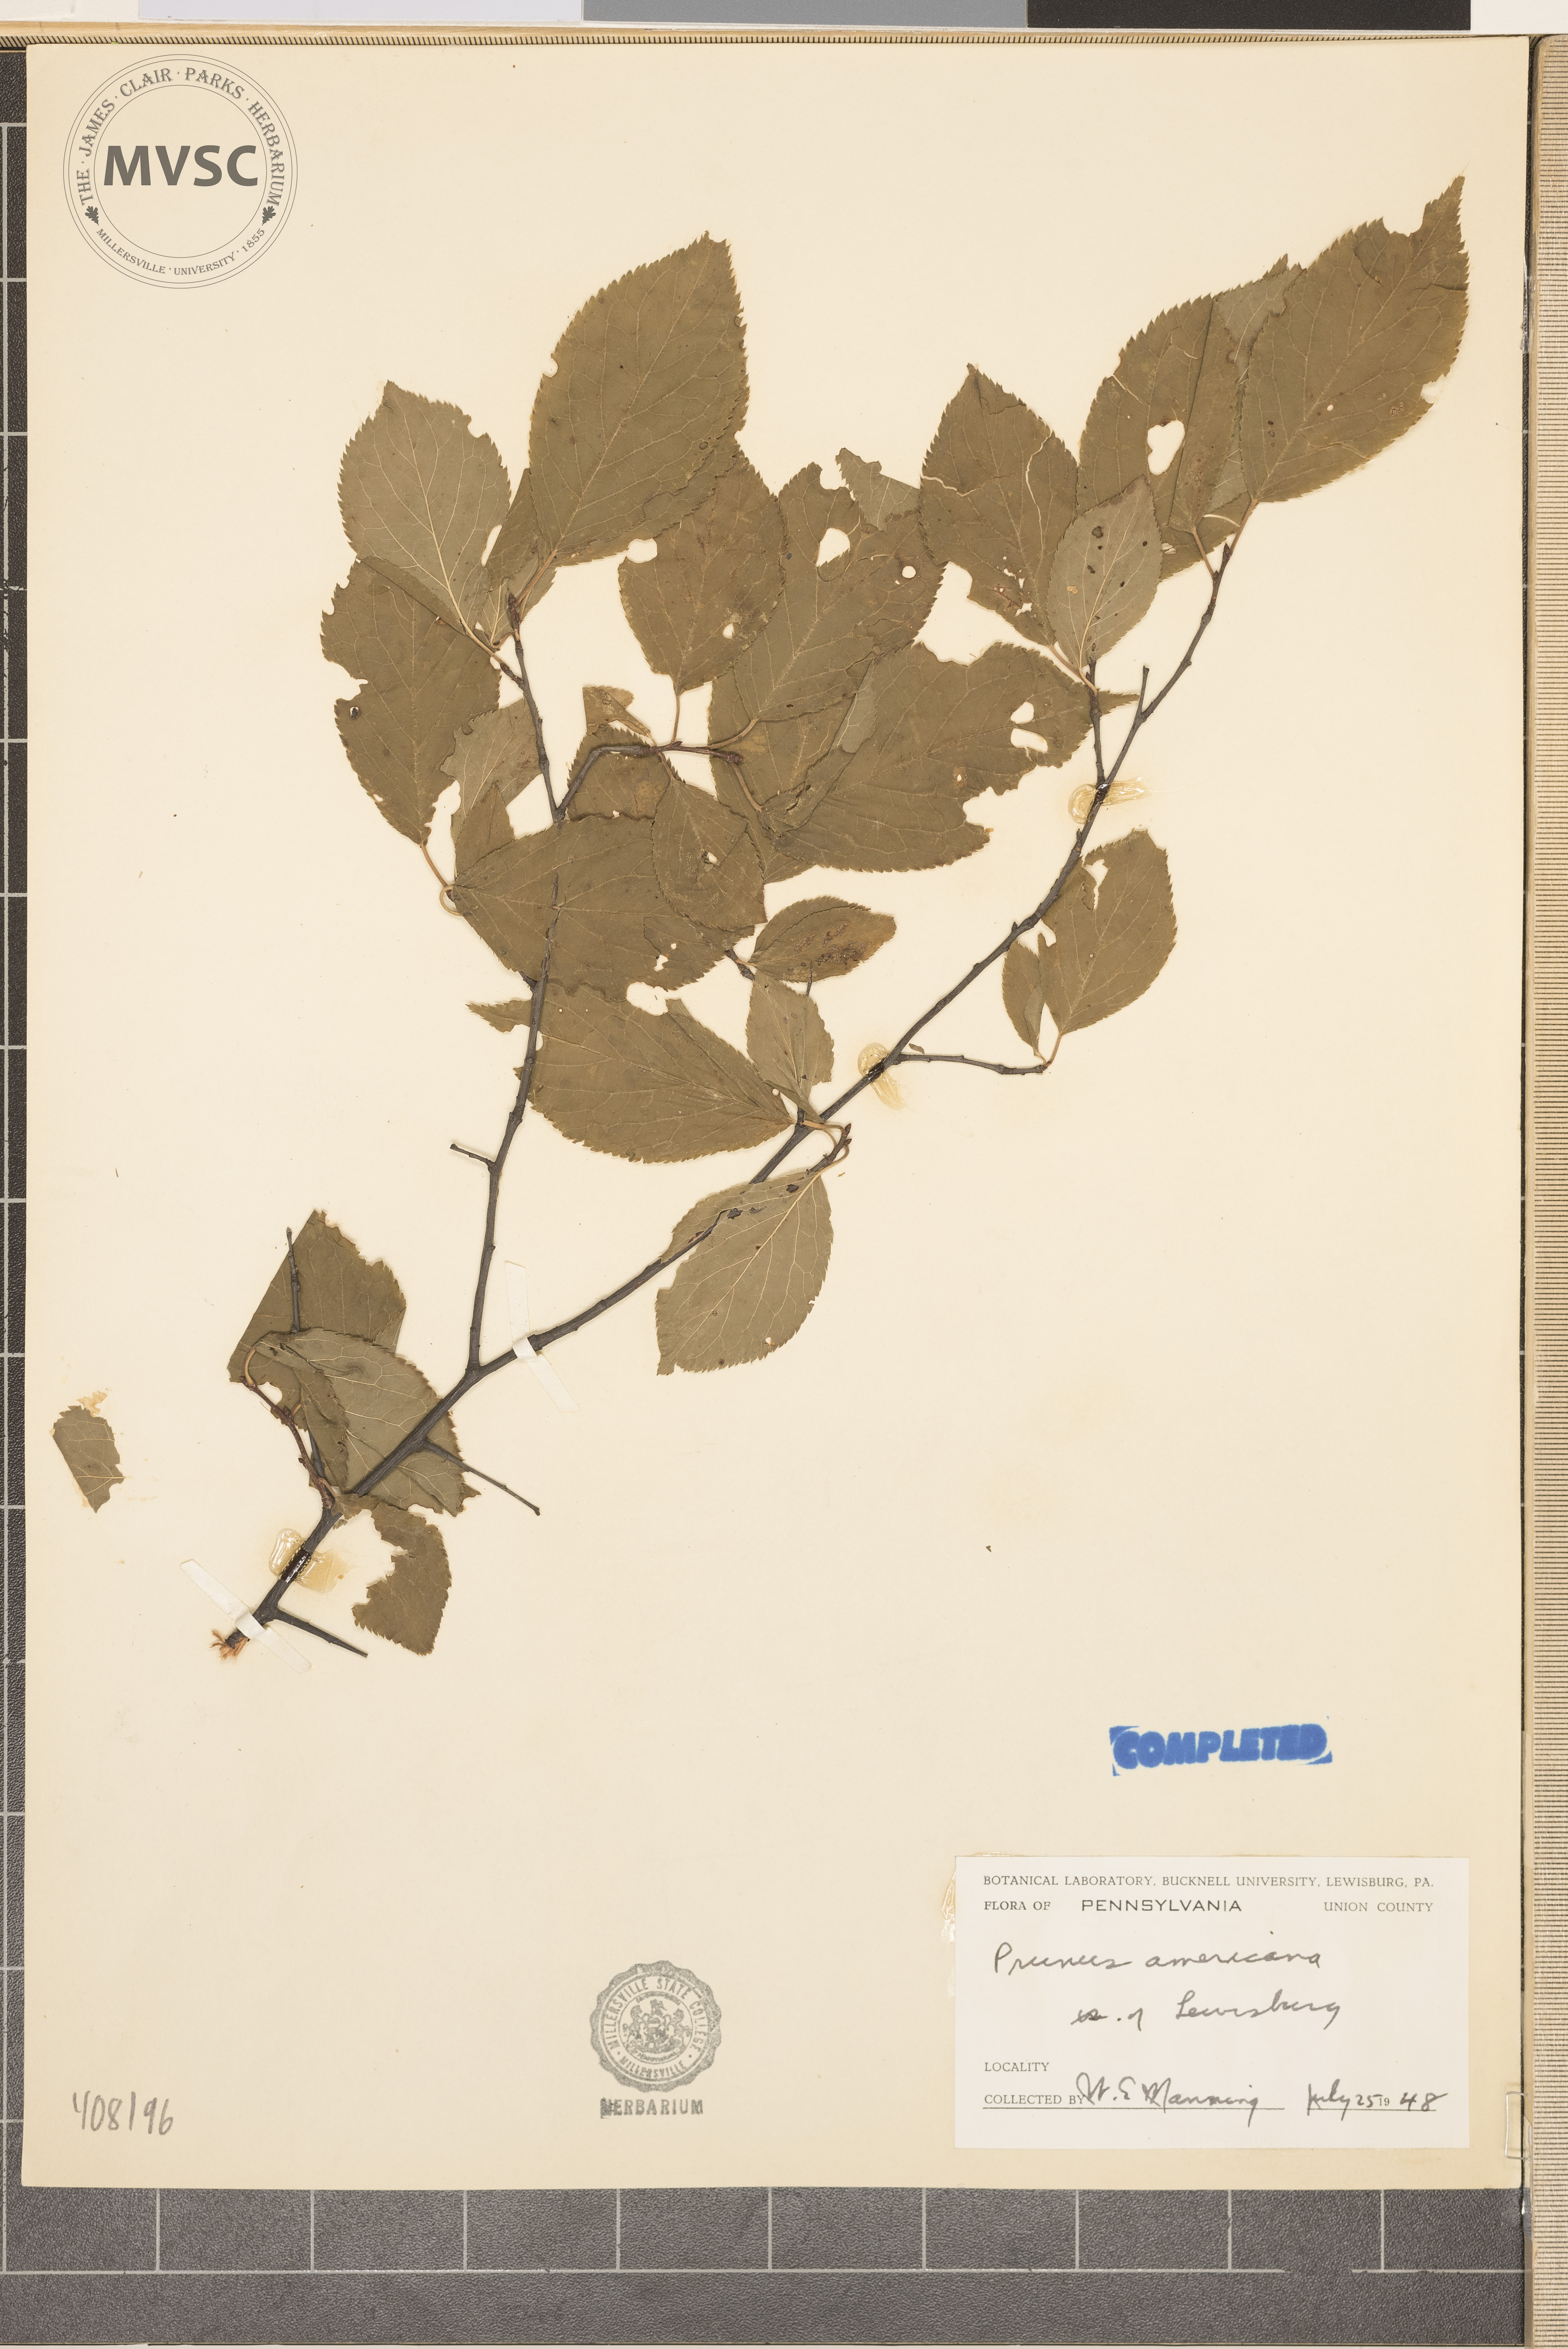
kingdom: Plantae
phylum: Tracheophyta
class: Magnoliopsida
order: Rosales
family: Rosaceae
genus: Prunus
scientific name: Prunus americana
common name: American plum
